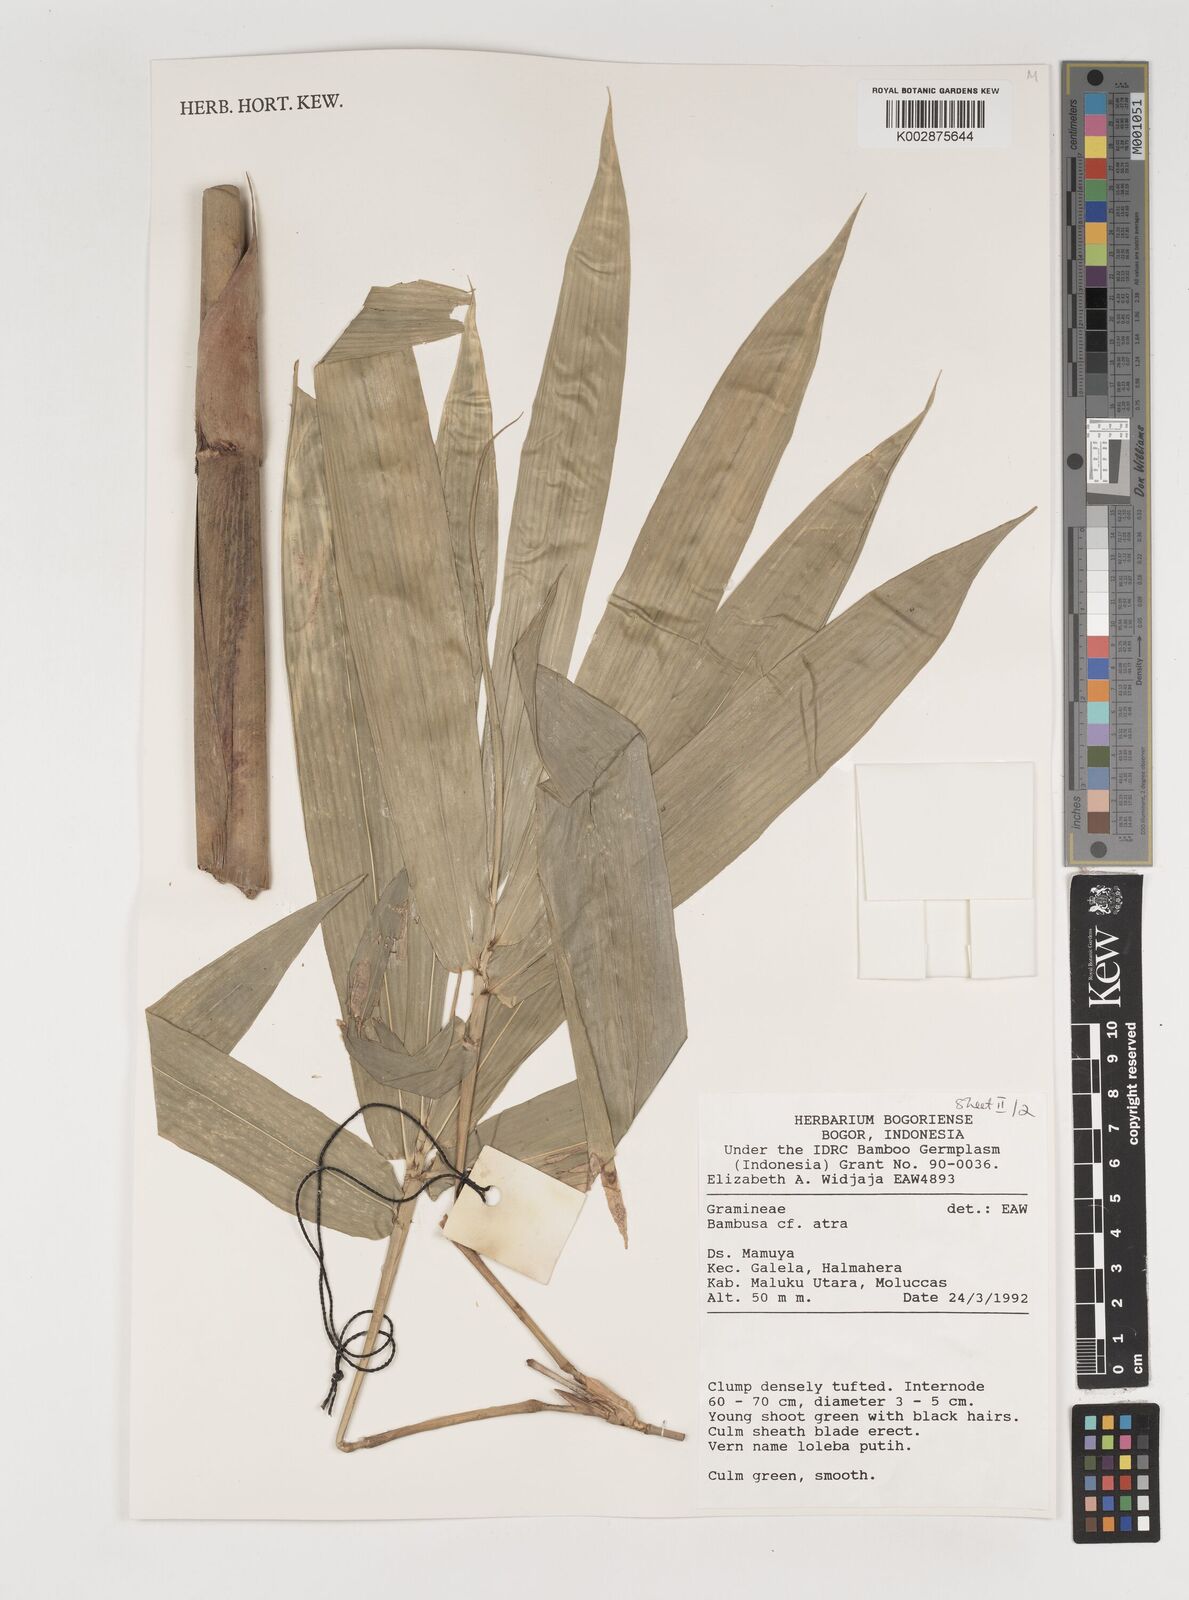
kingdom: Plantae
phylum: Tracheophyta
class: Liliopsida
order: Poales
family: Poaceae
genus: Neololeba
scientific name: Neololeba atra
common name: Cape bamboo
